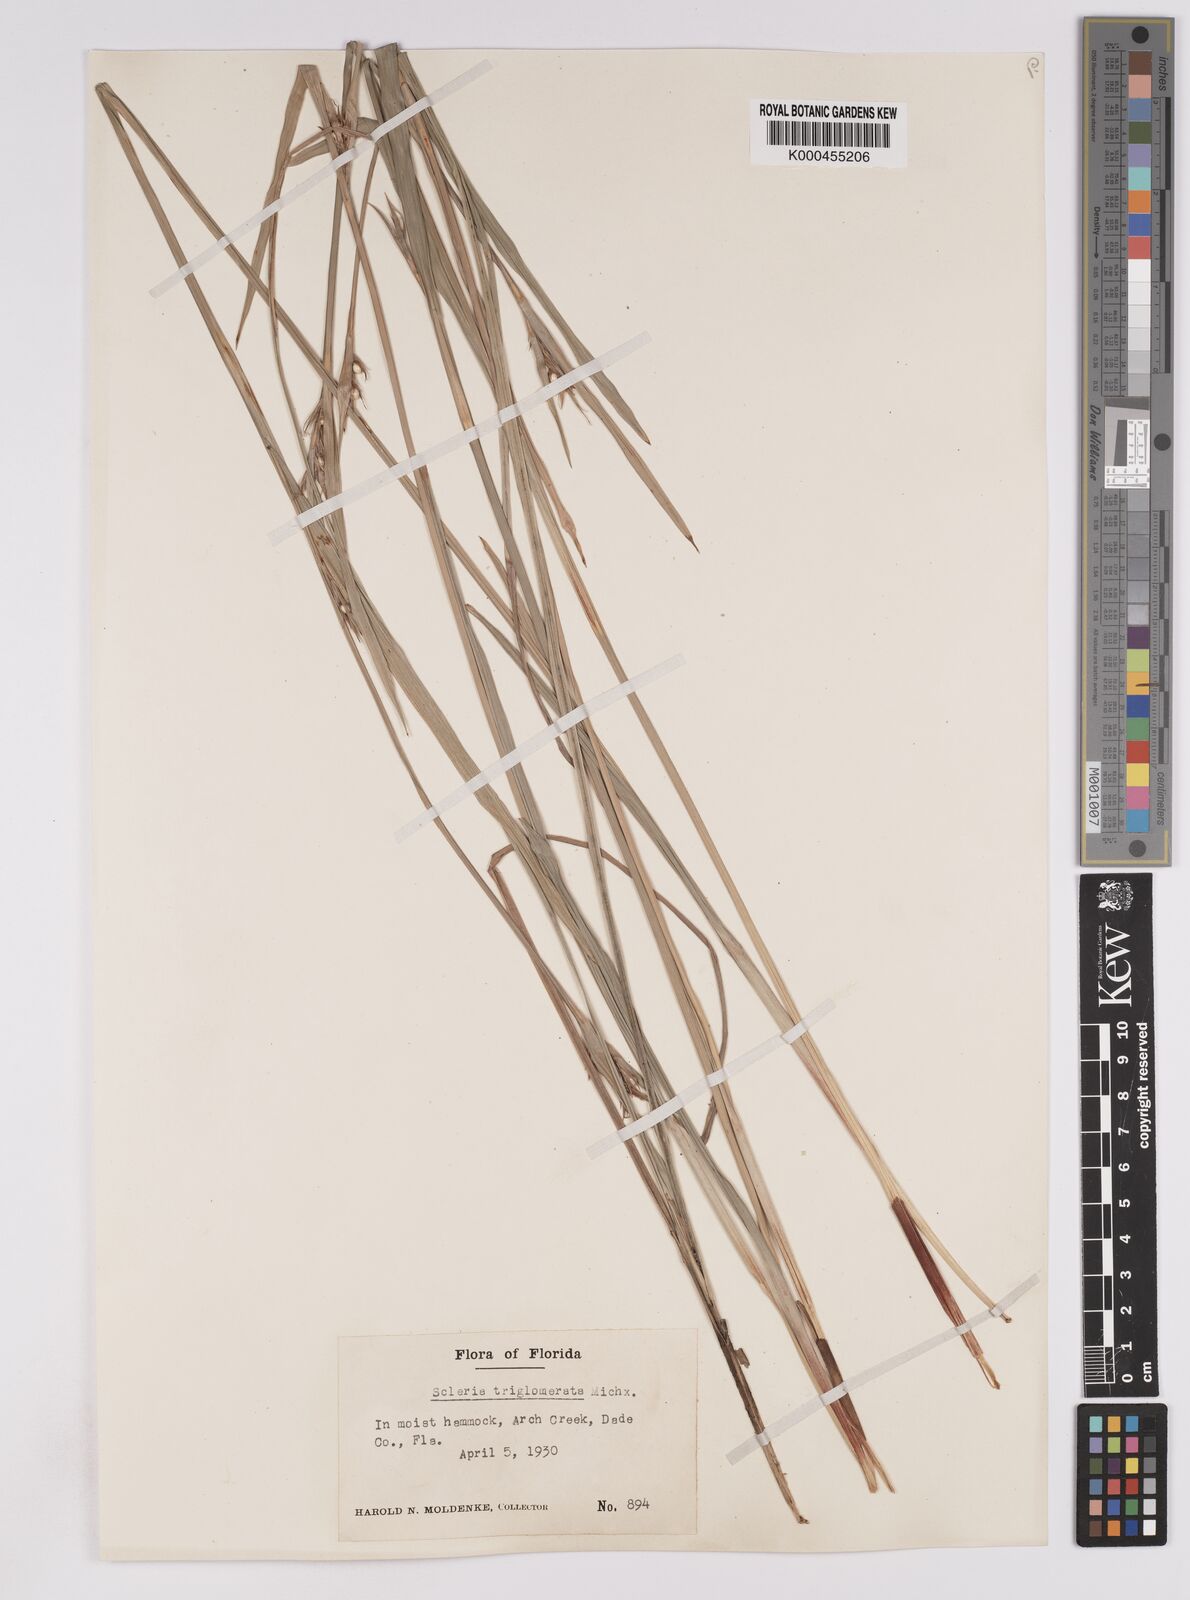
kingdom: Plantae
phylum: Tracheophyta
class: Liliopsida
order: Poales
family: Cyperaceae
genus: Scleria
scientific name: Scleria triglomerata
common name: Whip nutrush
